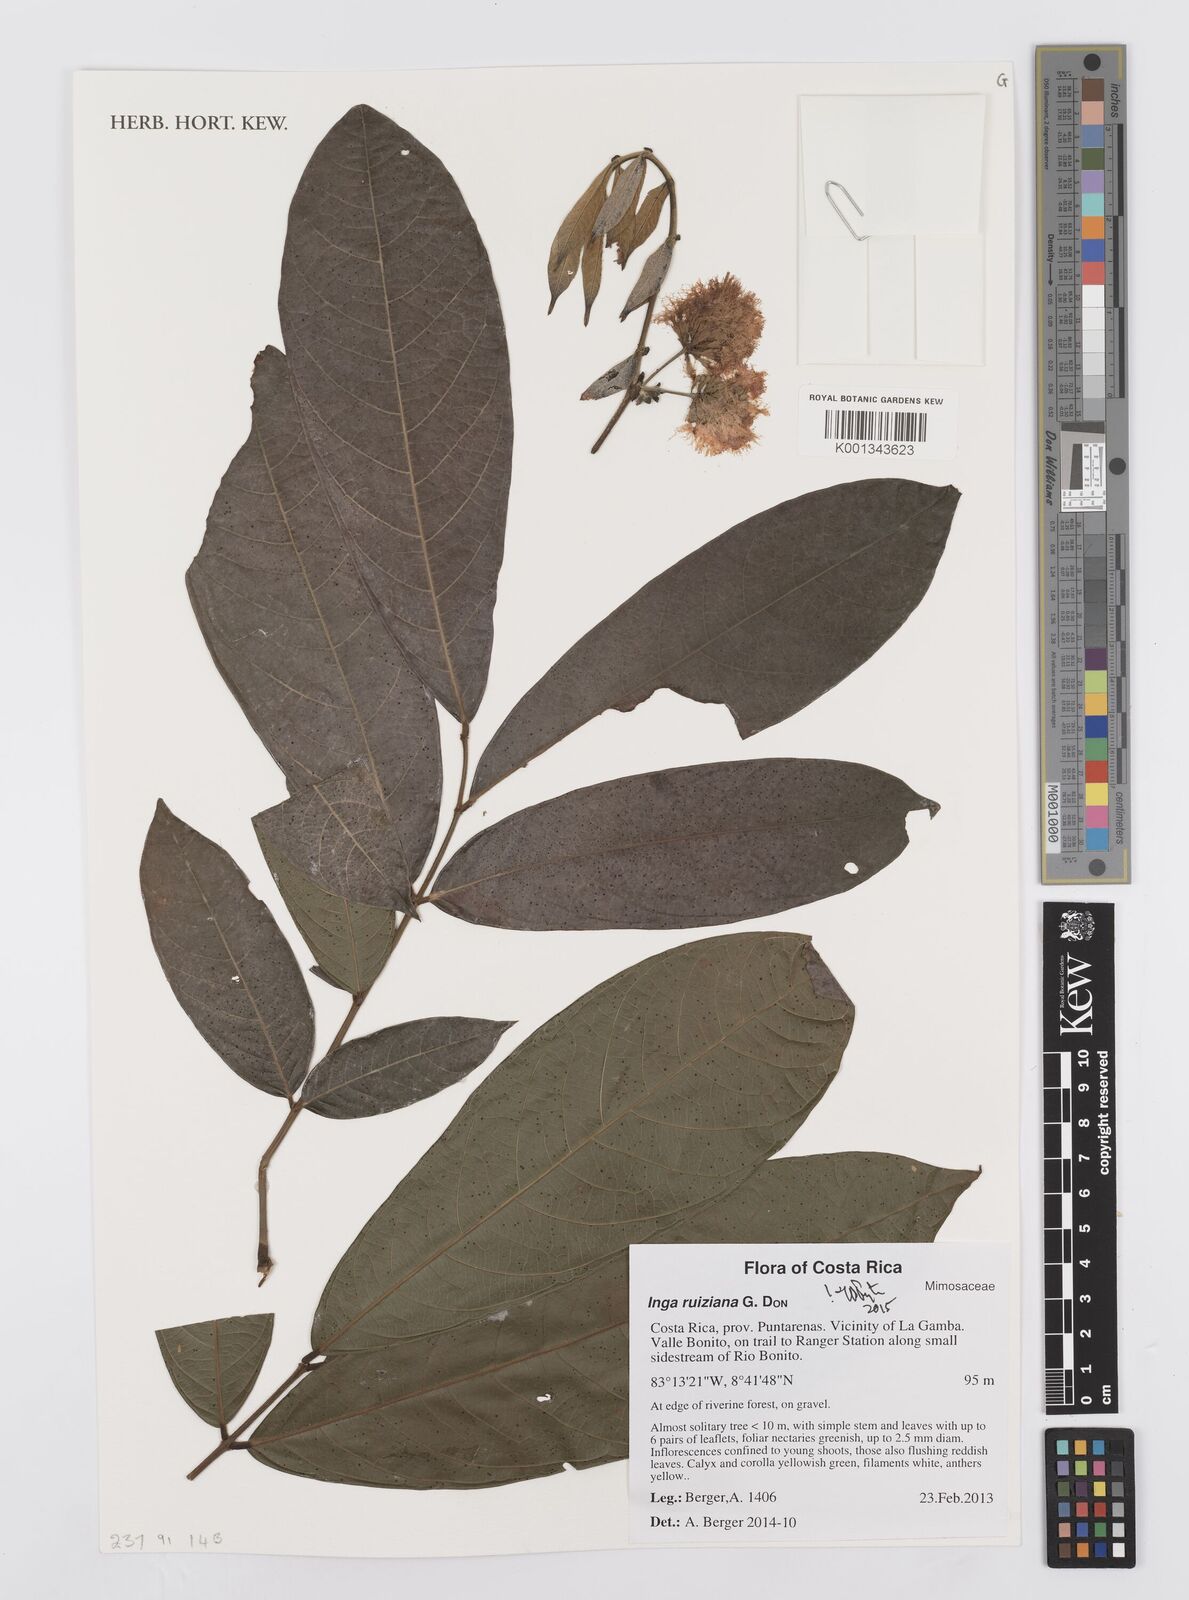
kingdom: Plantae
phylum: Tracheophyta
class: Magnoliopsida
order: Fabales
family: Fabaceae
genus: Inga
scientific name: Inga ruiziana
